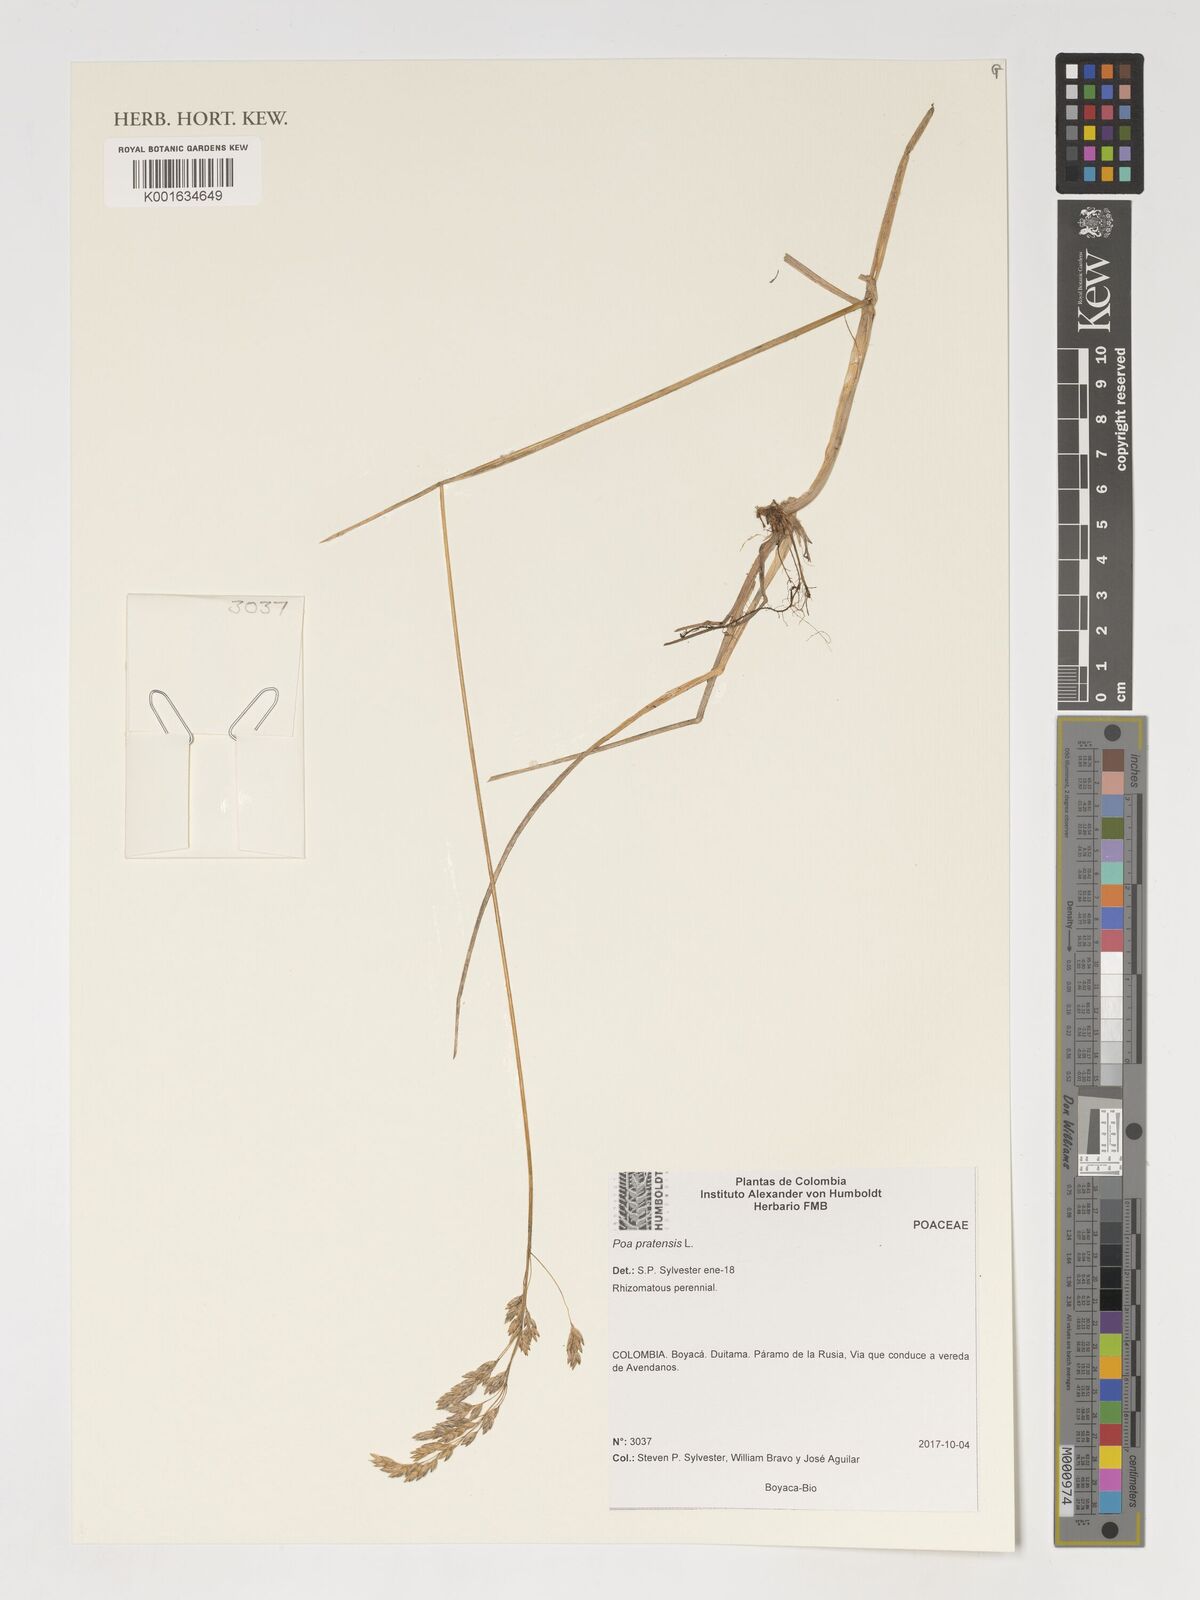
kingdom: Plantae
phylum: Tracheophyta
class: Liliopsida
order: Poales
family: Poaceae
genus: Poa
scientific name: Poa pratensis
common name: Kentucky bluegrass
